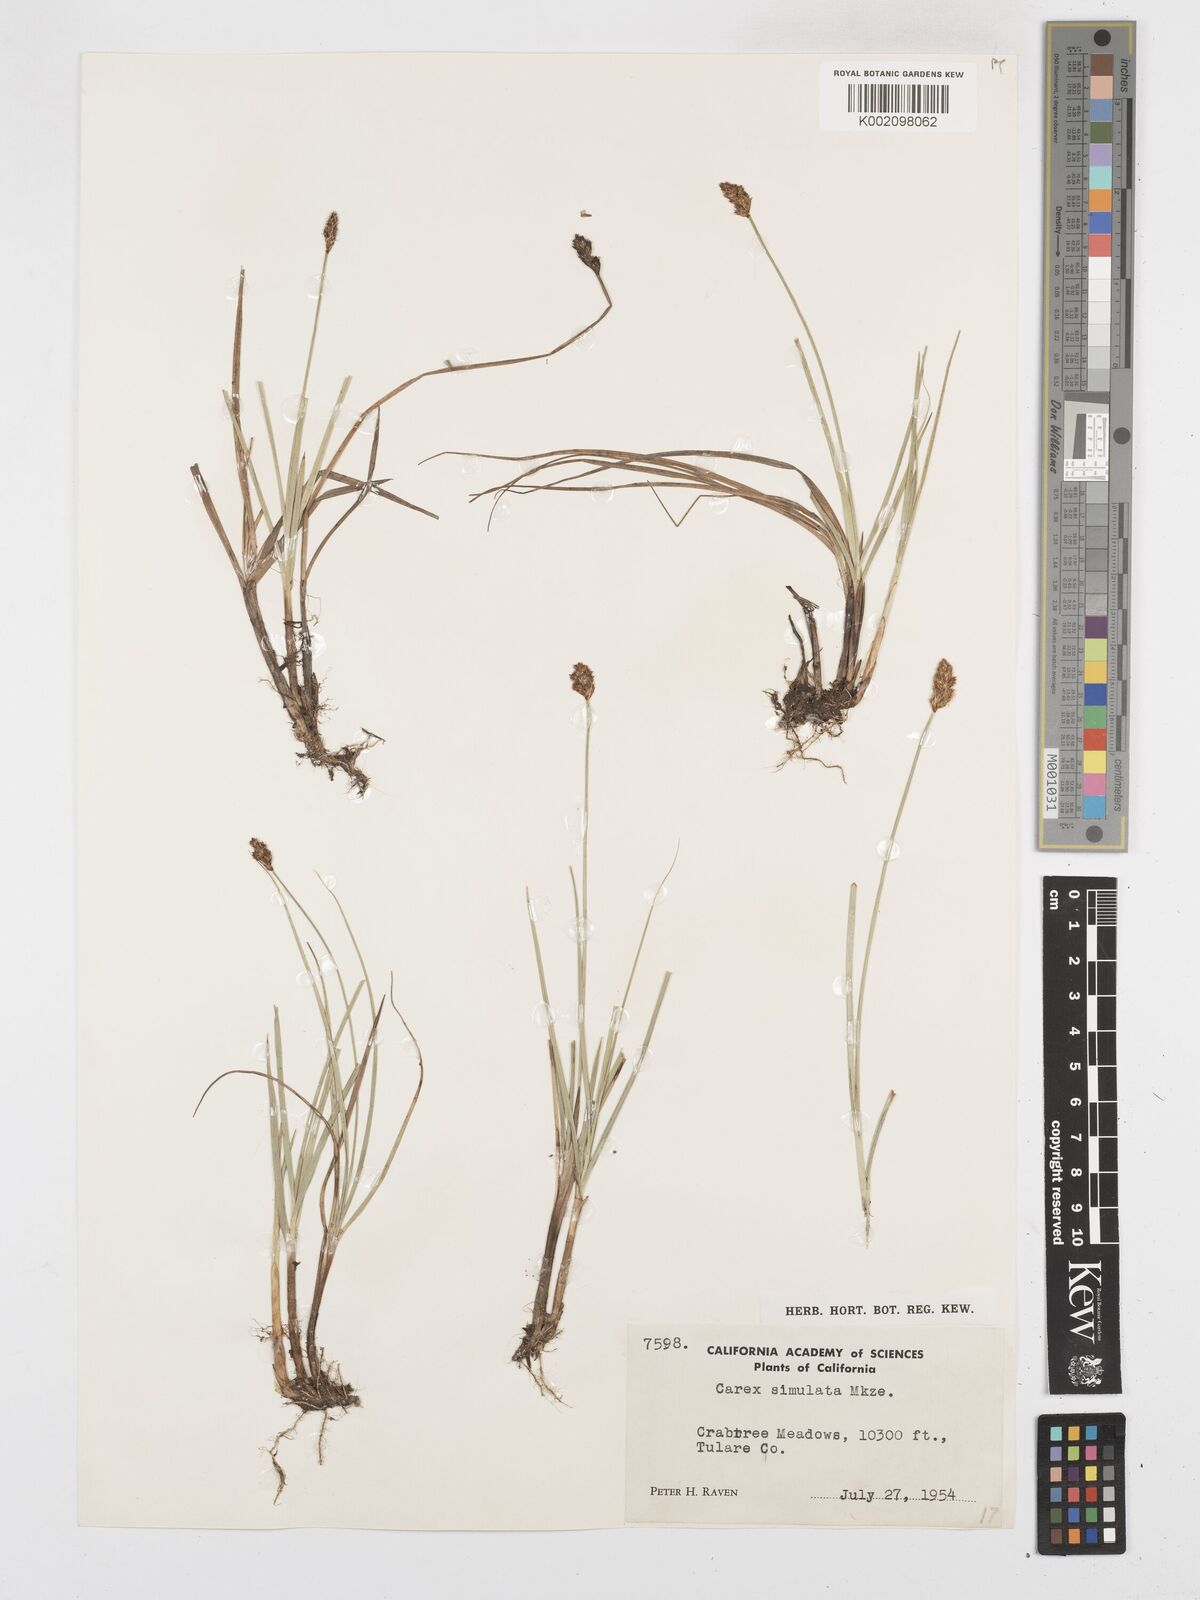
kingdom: Plantae
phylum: Tracheophyta
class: Liliopsida
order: Poales
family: Cyperaceae
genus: Carex
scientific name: Carex simulata
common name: Analogue sedge
